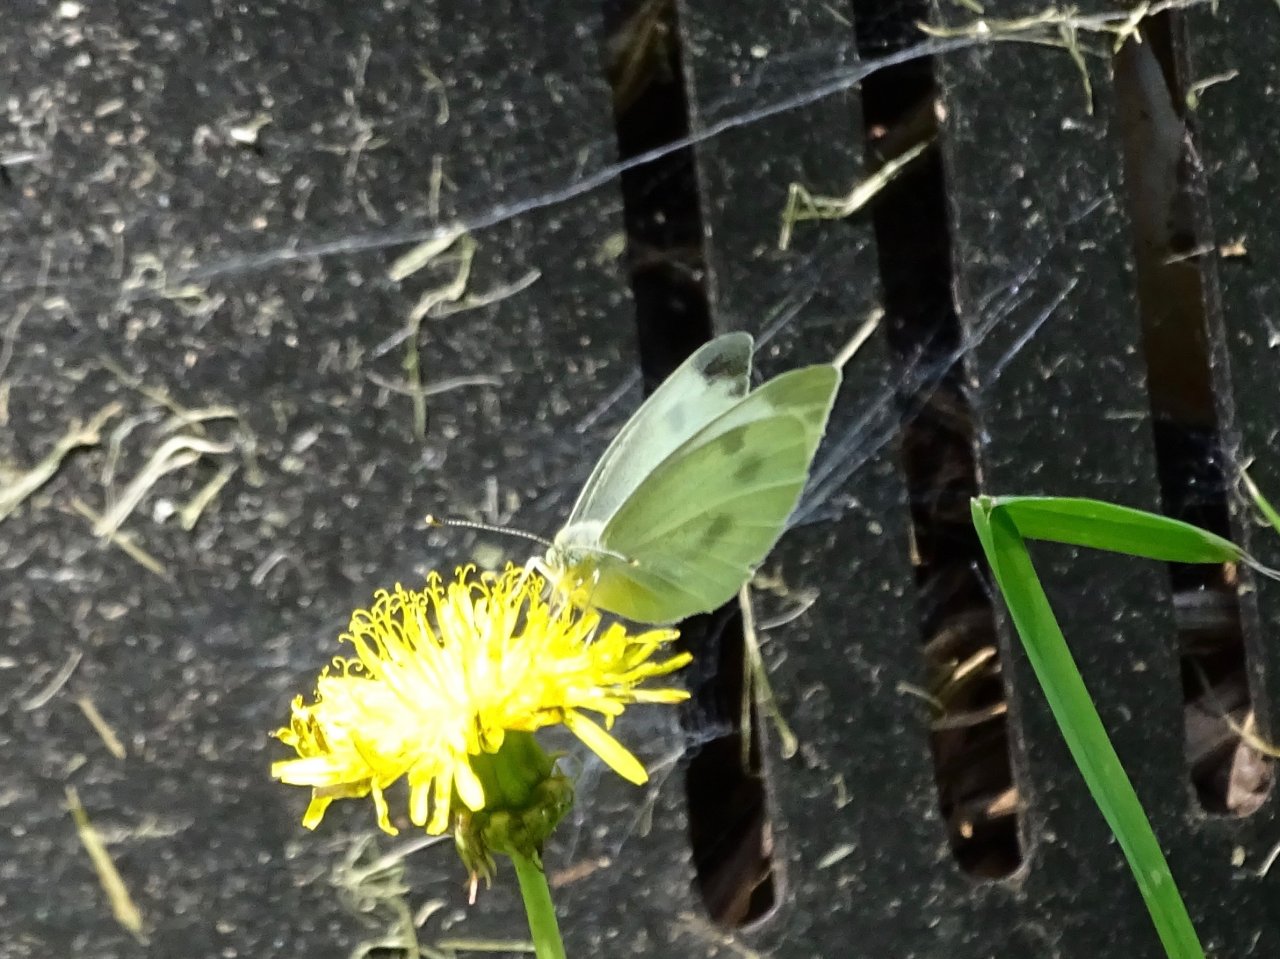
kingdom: Animalia
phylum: Arthropoda
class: Insecta
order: Lepidoptera
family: Pieridae
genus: Pieris
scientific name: Pieris rapae
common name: Cabbage White
